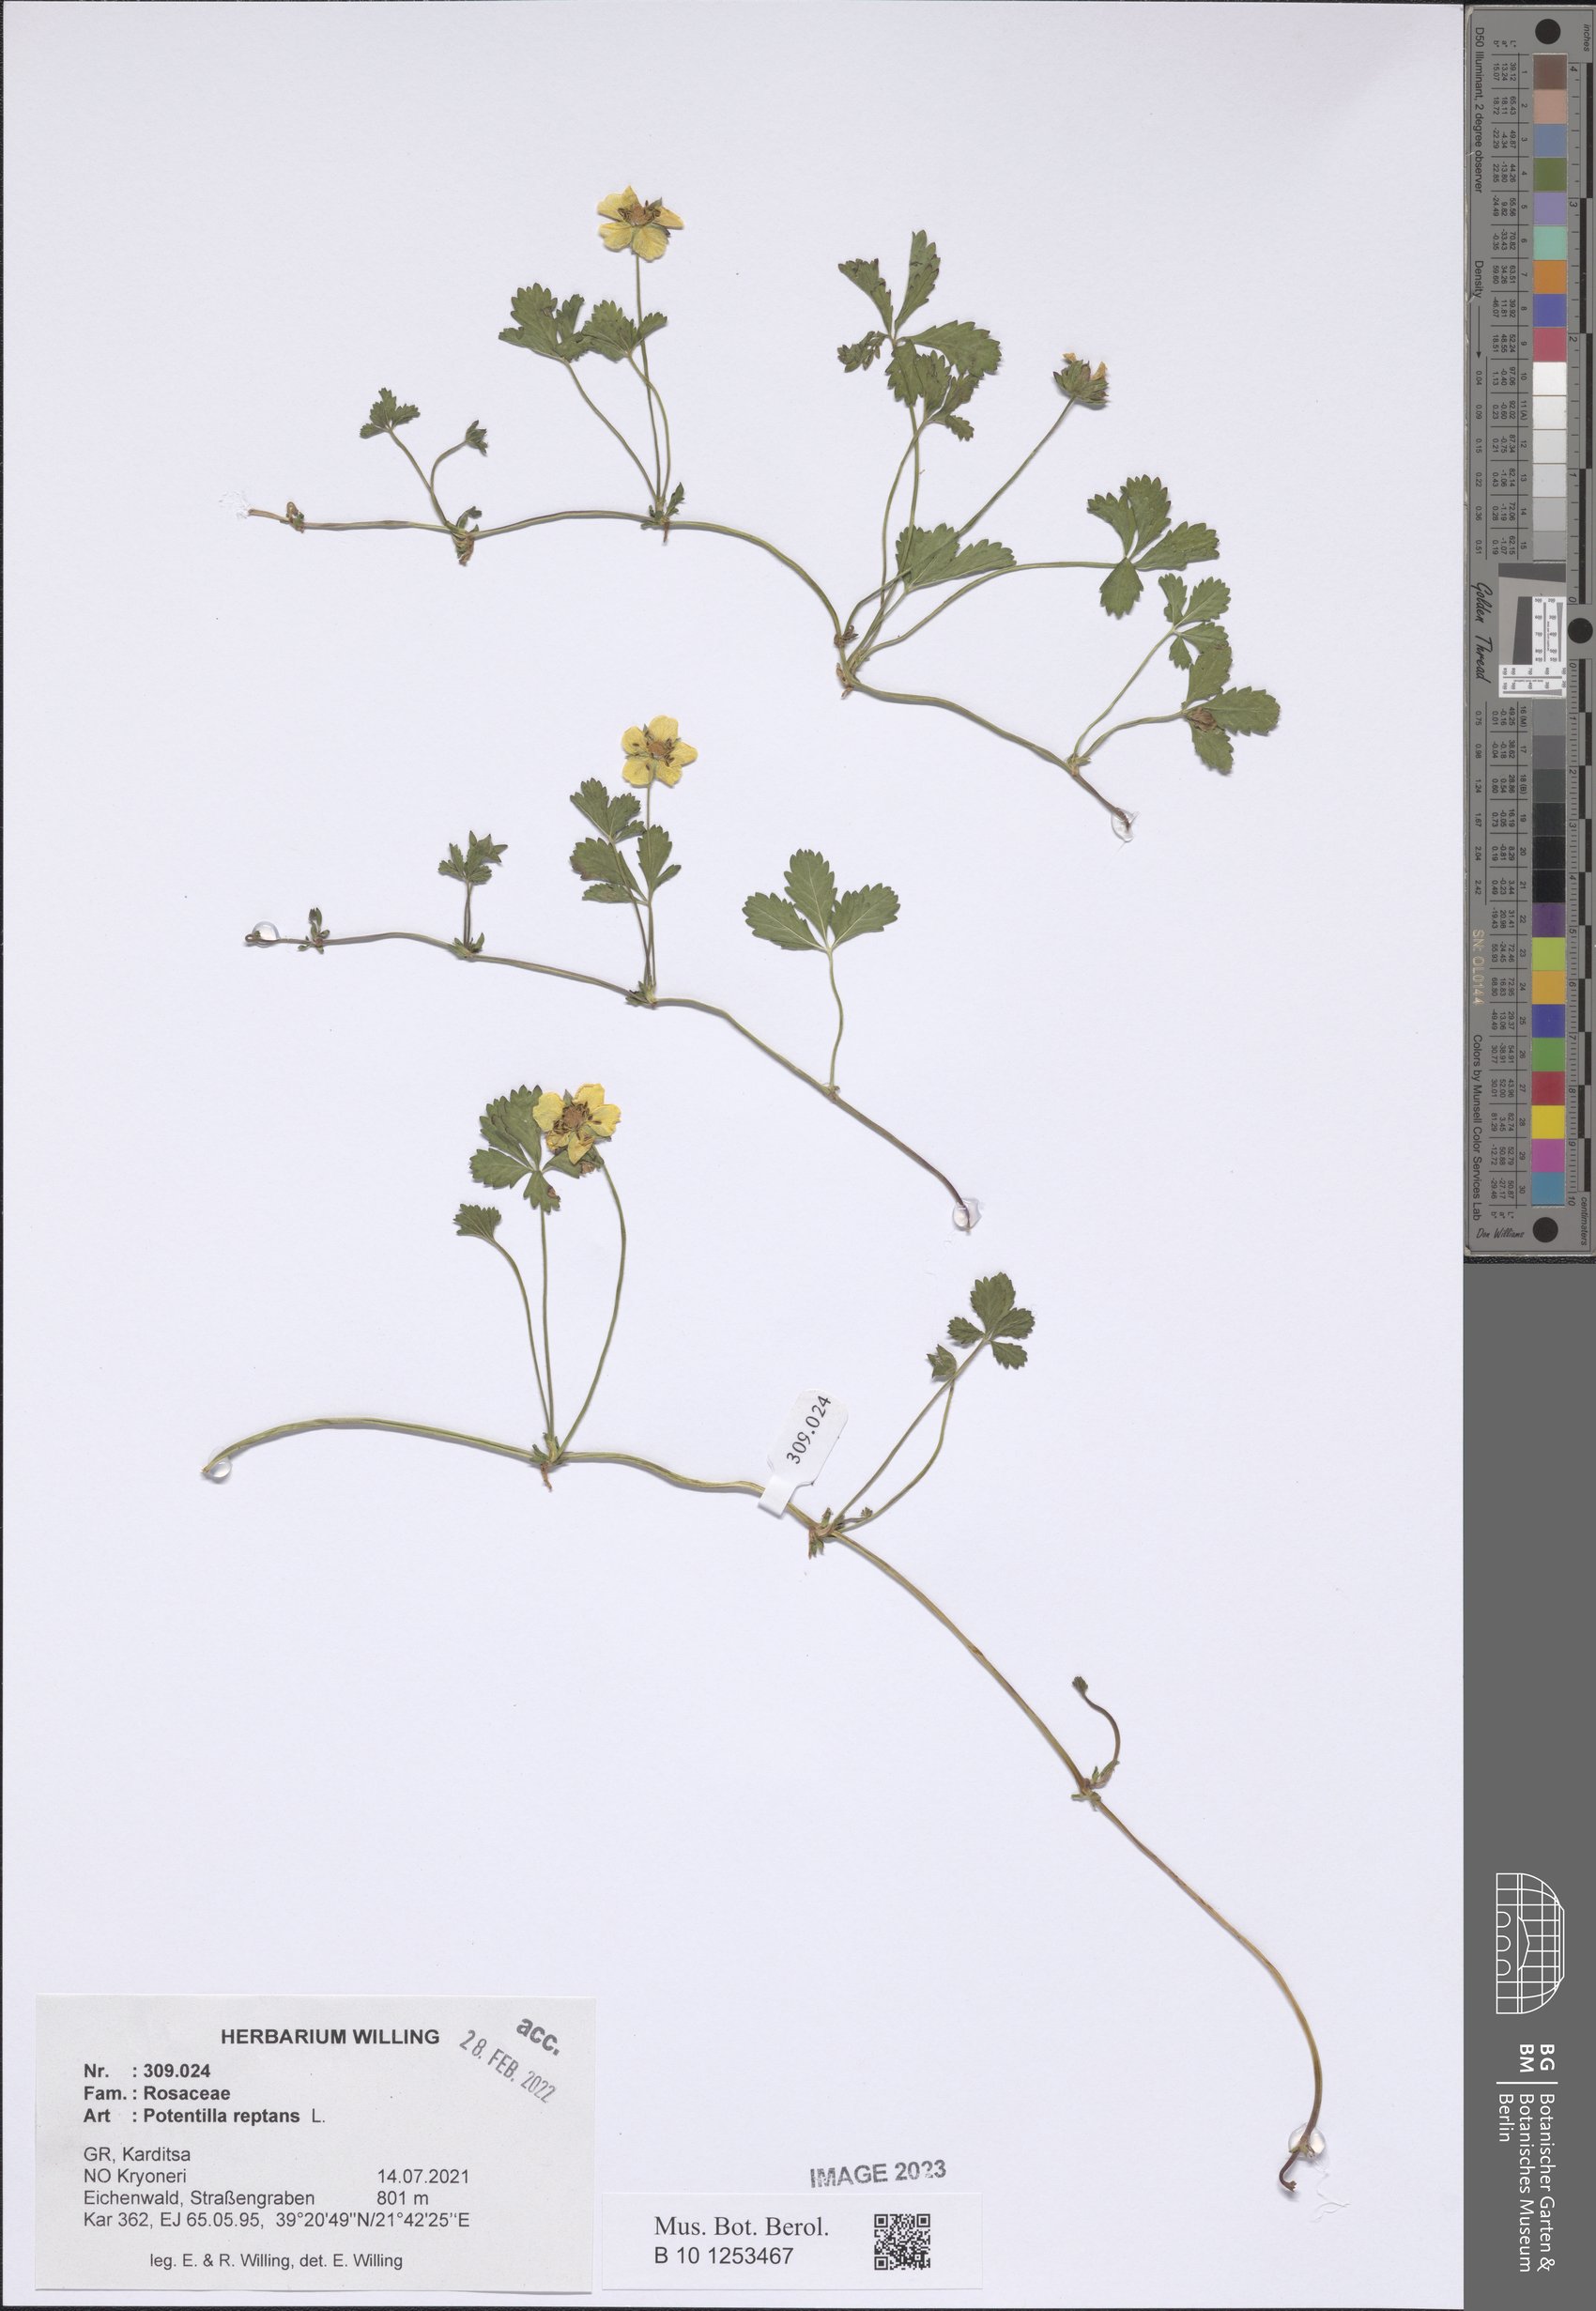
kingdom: Plantae
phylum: Tracheophyta
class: Magnoliopsida
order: Rosales
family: Rosaceae
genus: Potentilla
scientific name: Potentilla reptans
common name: Creeping cinquefoil
